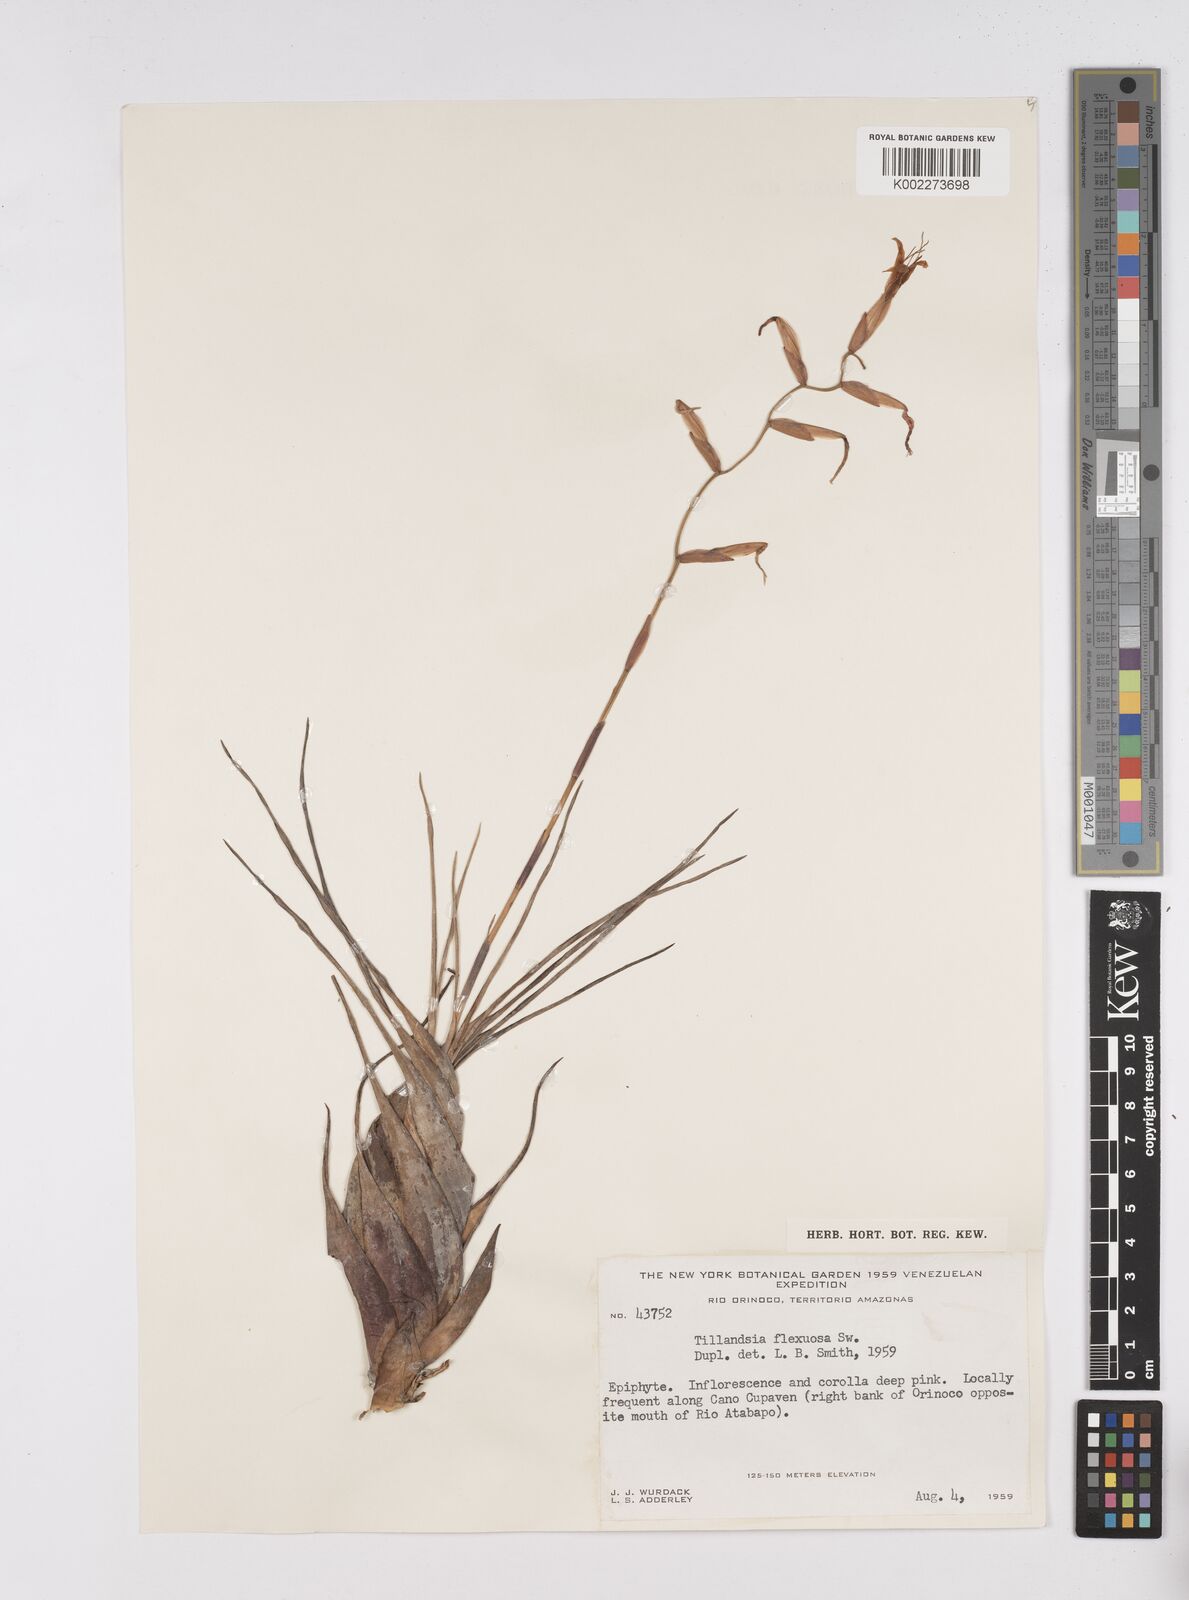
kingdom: Plantae
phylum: Tracheophyta
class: Liliopsida
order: Poales
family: Bromeliaceae
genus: Tillandsia
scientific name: Tillandsia flexuosa
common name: Banded airplant
